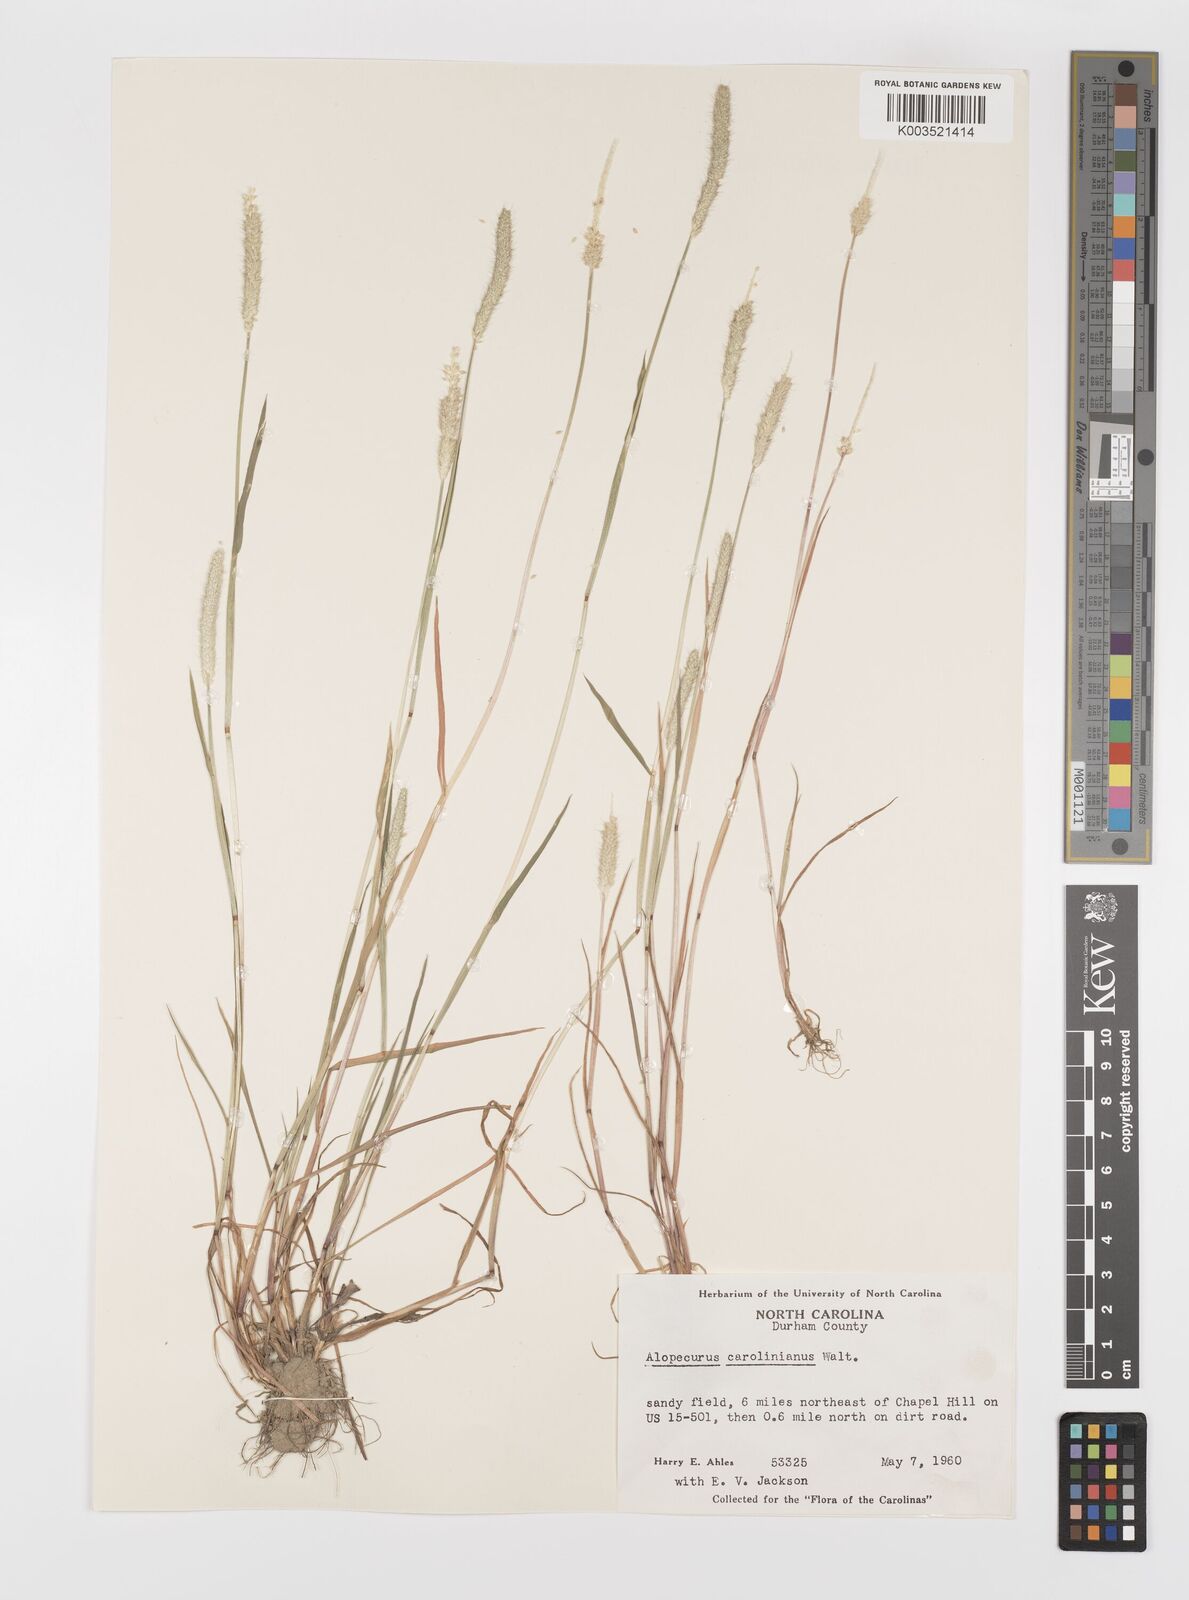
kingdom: Plantae
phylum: Tracheophyta
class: Liliopsida
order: Poales
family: Poaceae
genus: Alopecurus
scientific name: Alopecurus carolinianus
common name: Tufted foxtail
